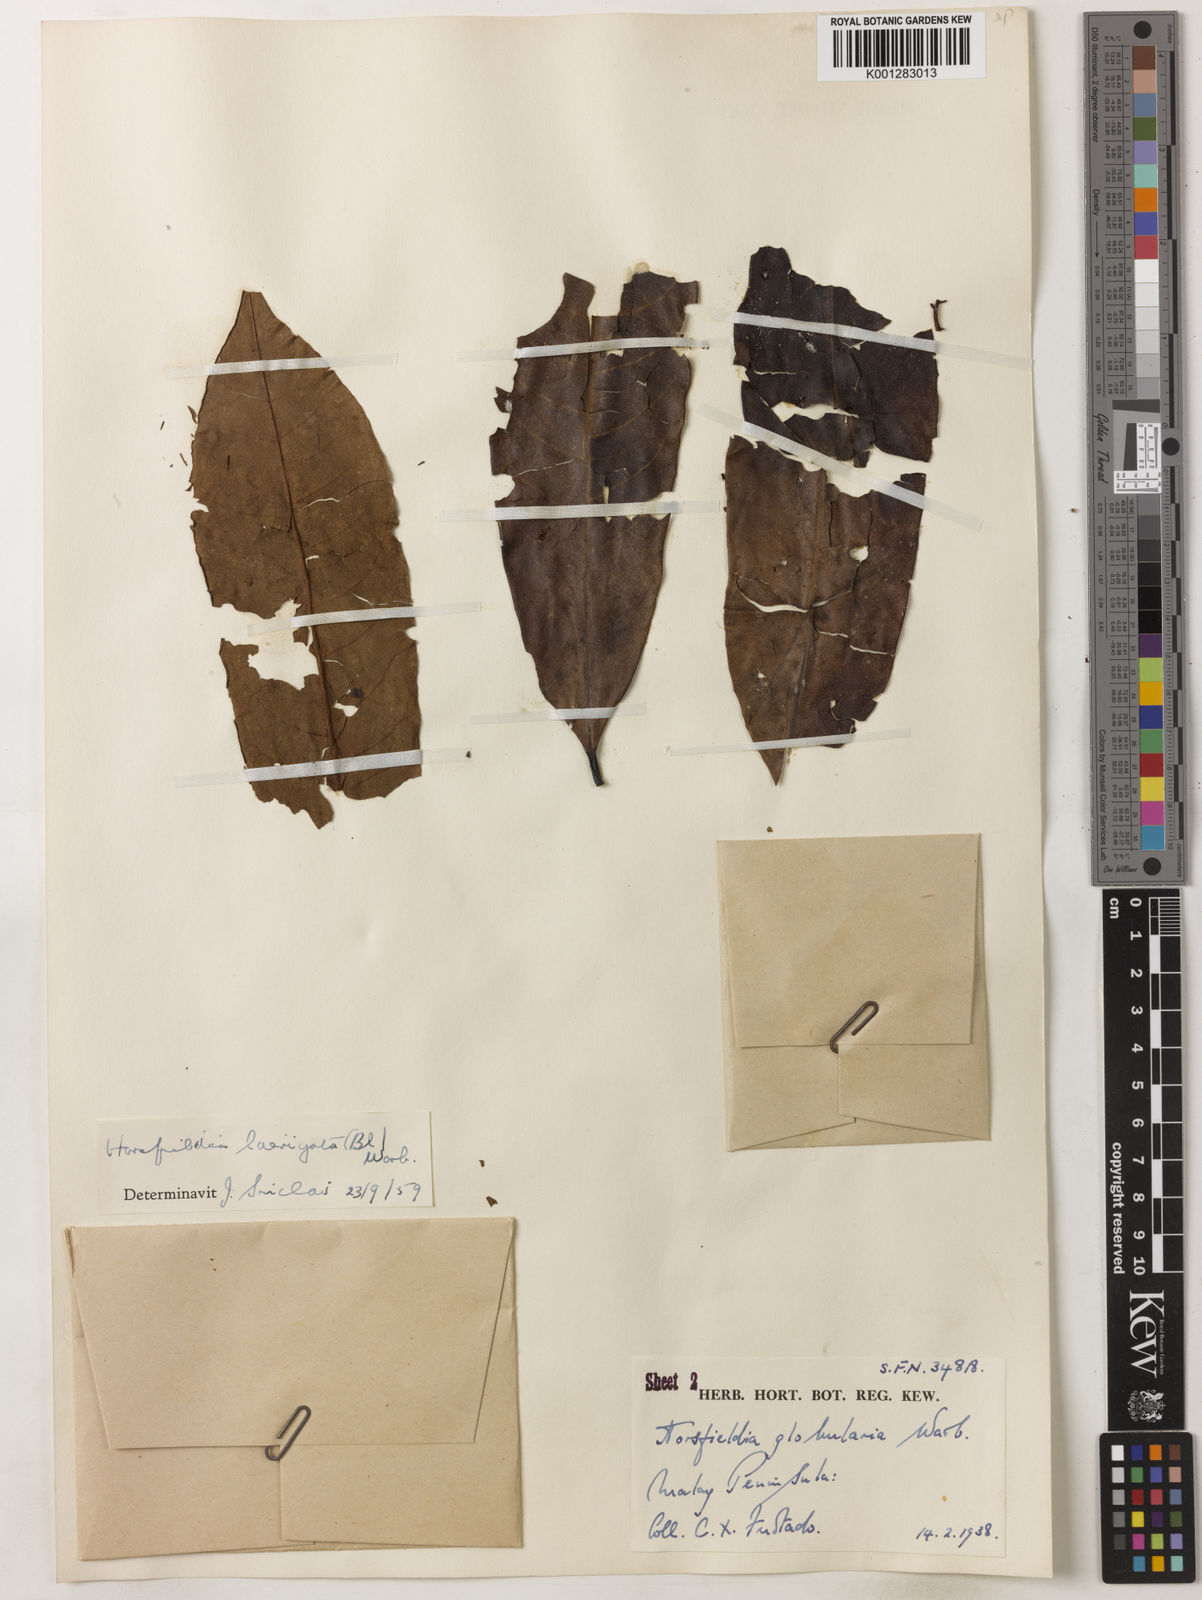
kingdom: Plantae
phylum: Tracheophyta
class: Magnoliopsida
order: Magnoliales
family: Myristicaceae
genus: Horsfieldia
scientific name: Horsfieldia laevigata
